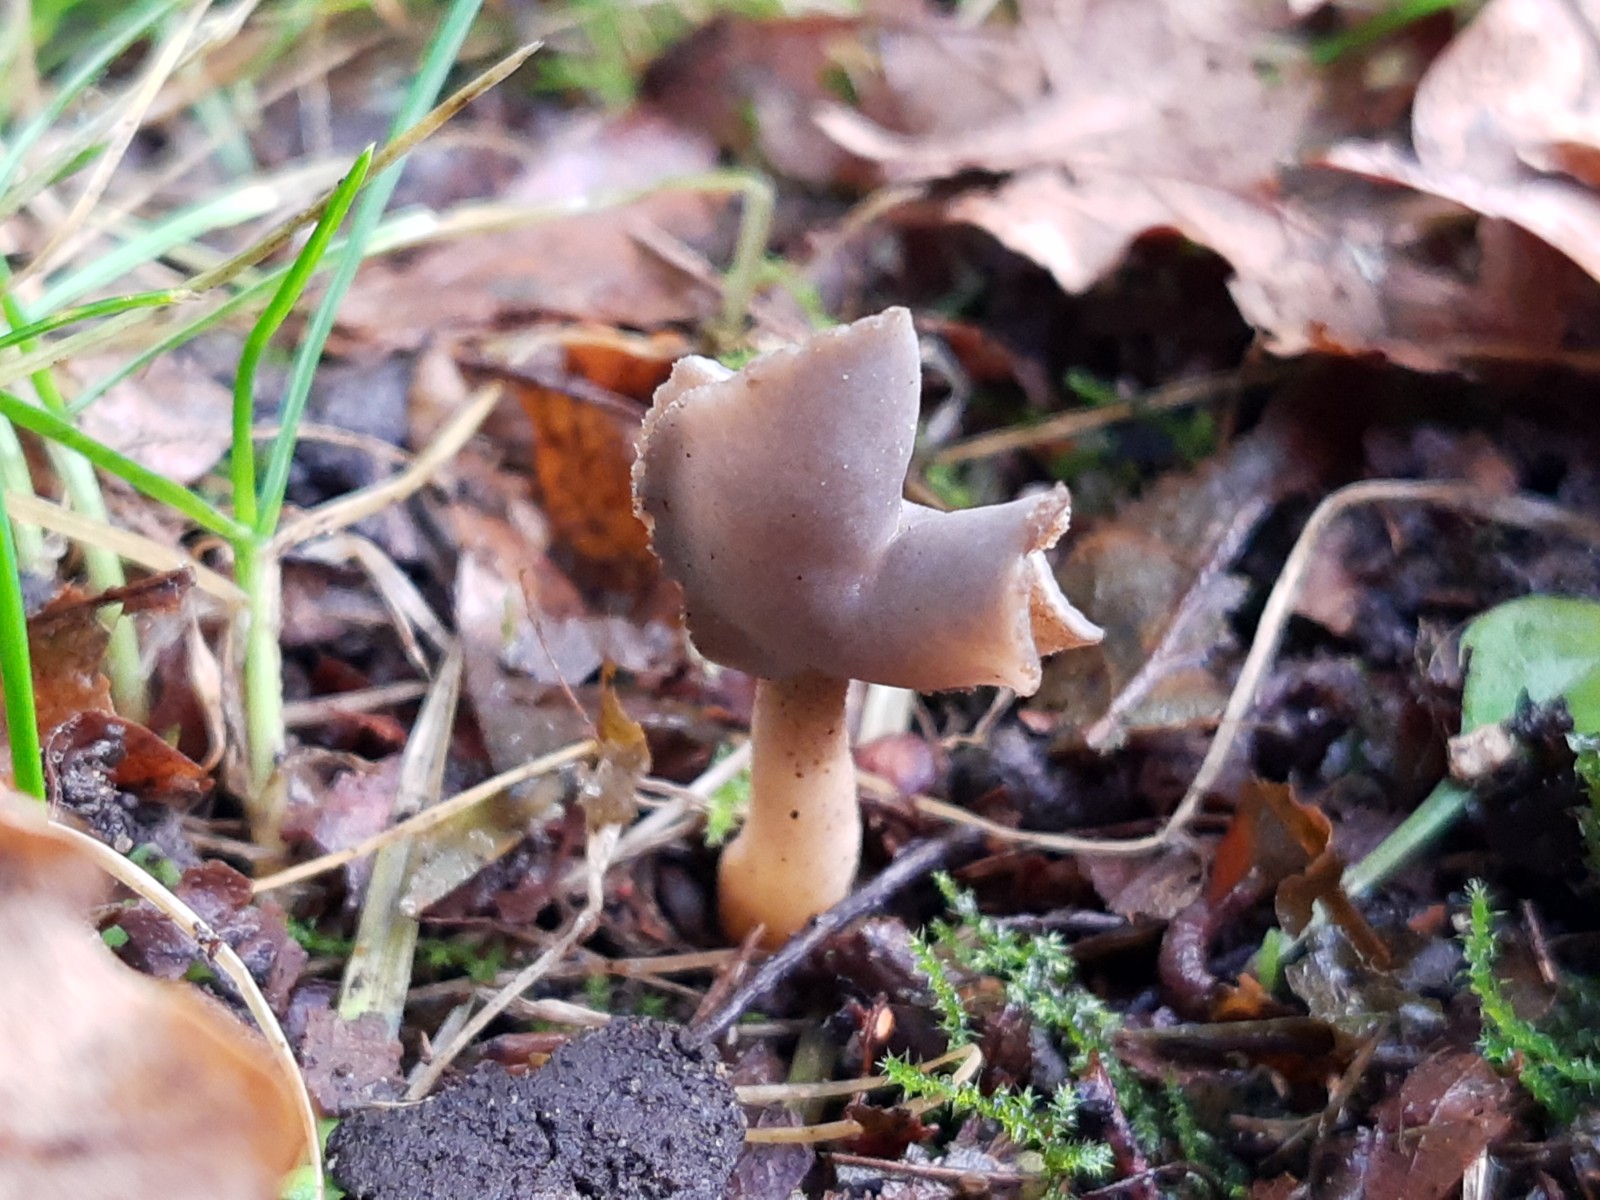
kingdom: Fungi
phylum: Ascomycota
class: Pezizomycetes
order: Pezizales
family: Helvellaceae
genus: Helvella
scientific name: Helvella sublicia
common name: saddel-foldhat
